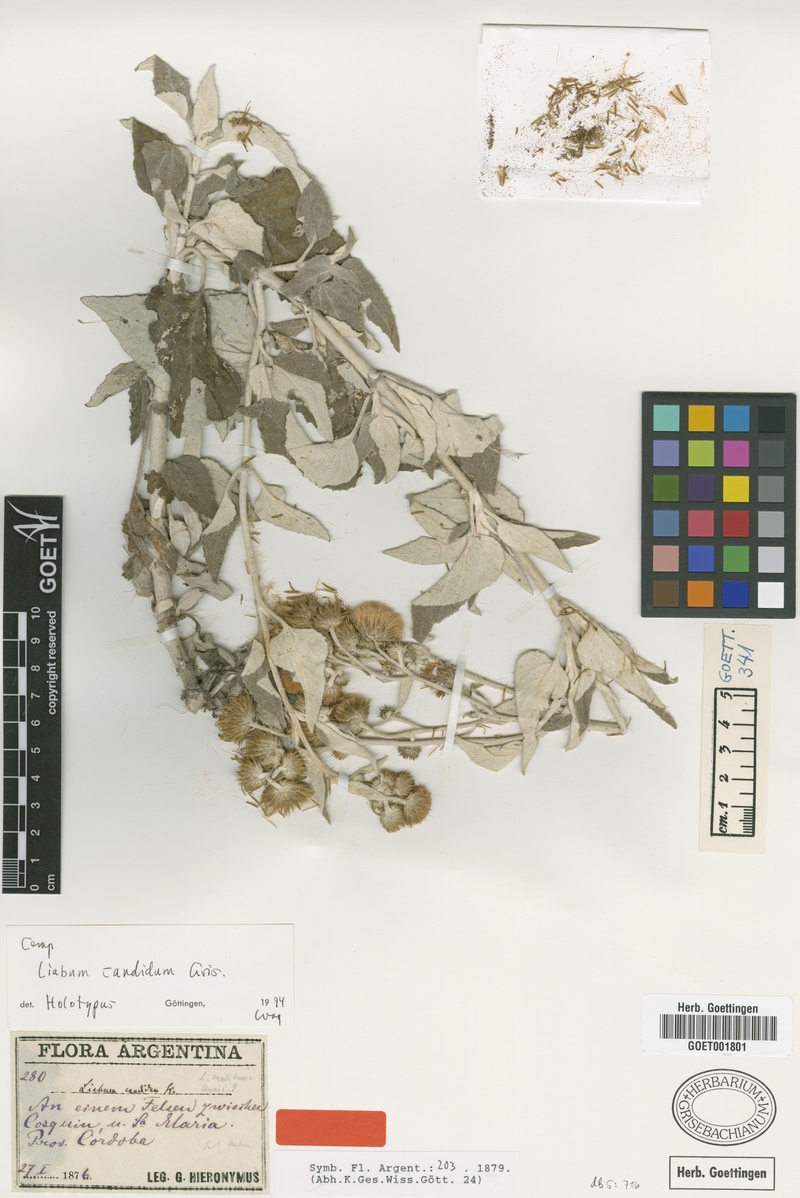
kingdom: Plantae
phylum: Tracheophyta
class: Magnoliopsida
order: Asterales
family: Asteraceae
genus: Microliabum
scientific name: Microliabum candidum
